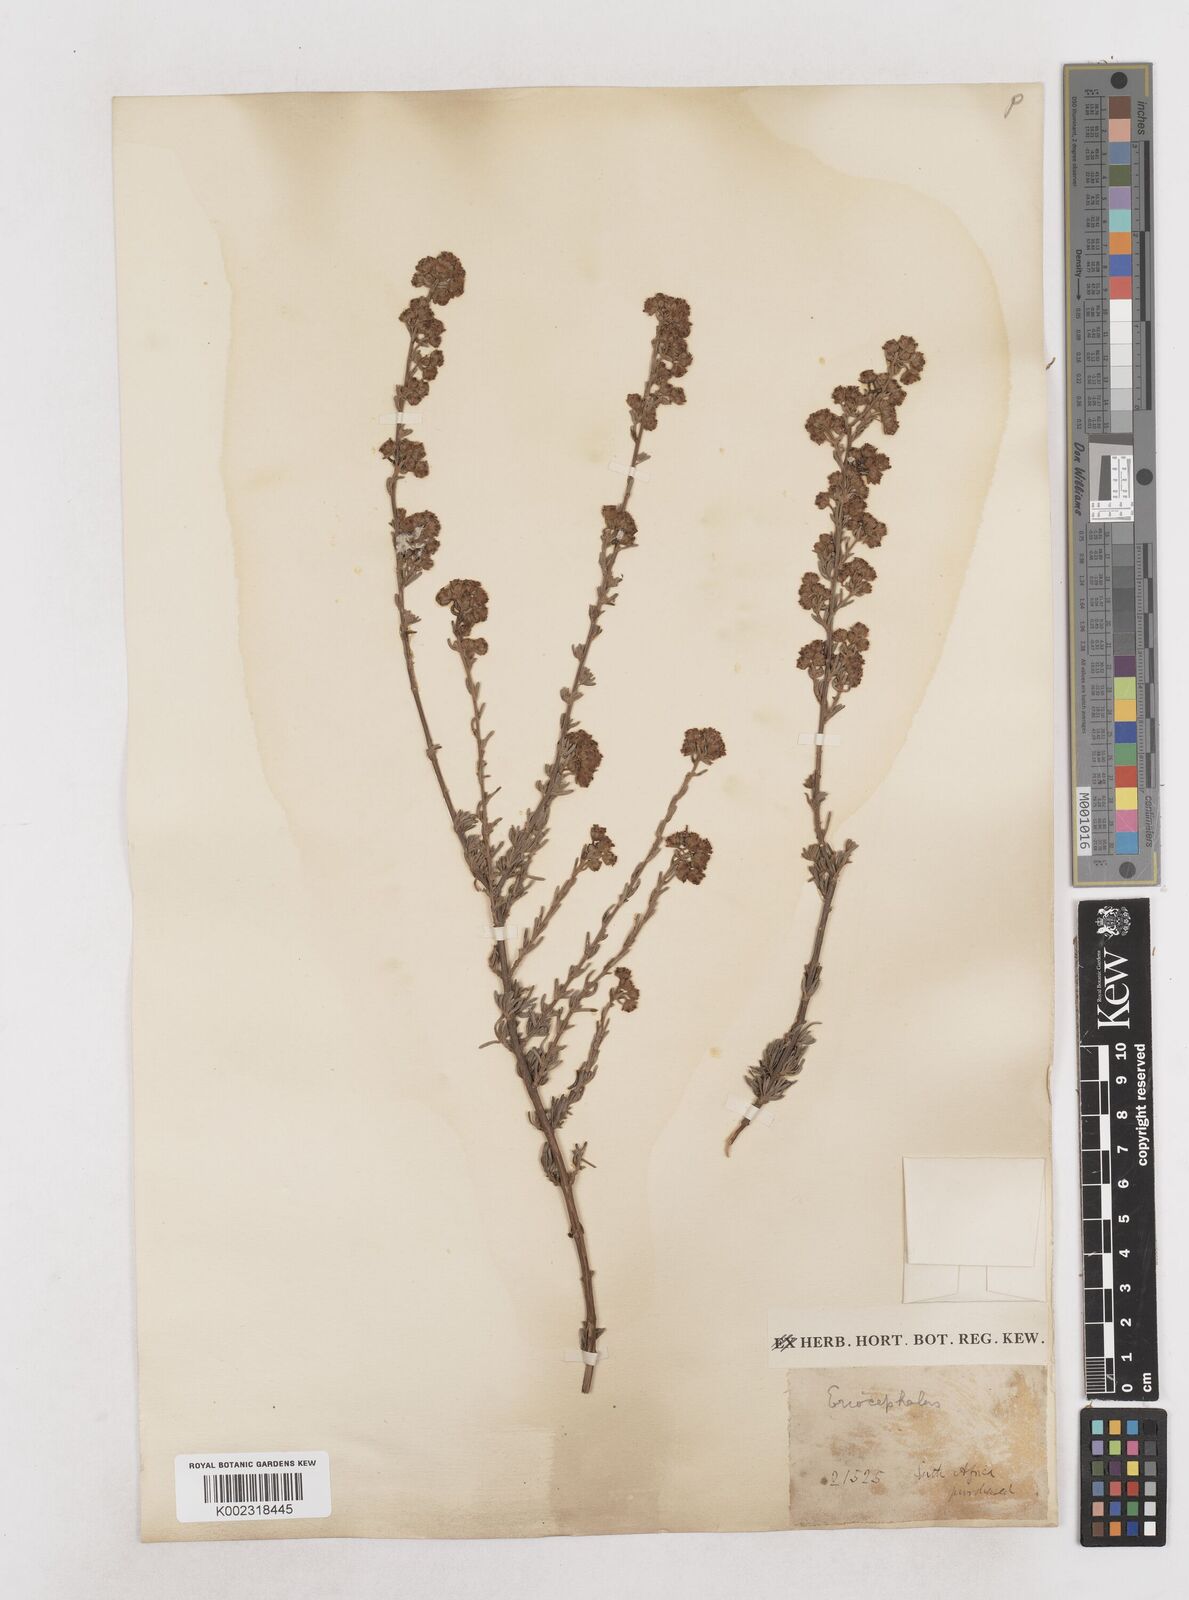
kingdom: Plantae
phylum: Tracheophyta
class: Magnoliopsida
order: Asterales
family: Asteraceae
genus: Eriocephalus
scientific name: Eriocephalus
